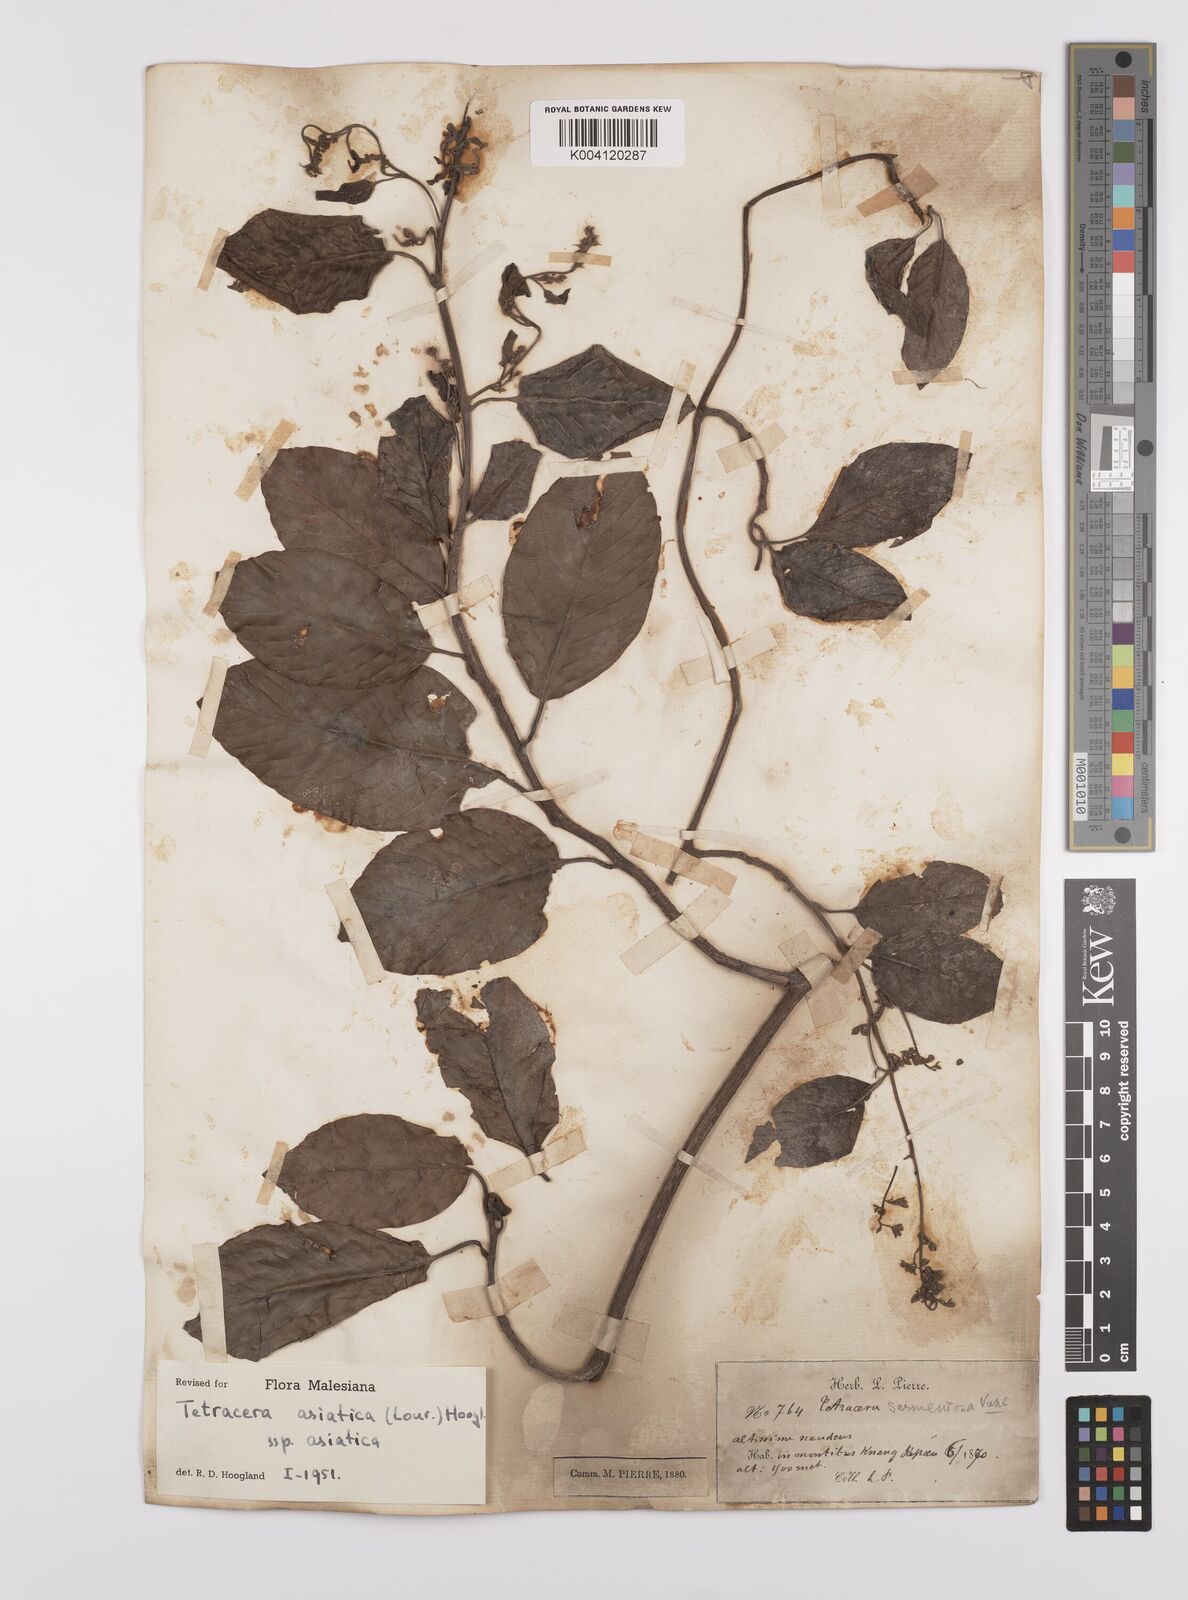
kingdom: Plantae
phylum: Tracheophyta
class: Magnoliopsida
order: Dilleniales
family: Dilleniaceae
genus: Tetracera
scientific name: Tetracera sarmentosa
